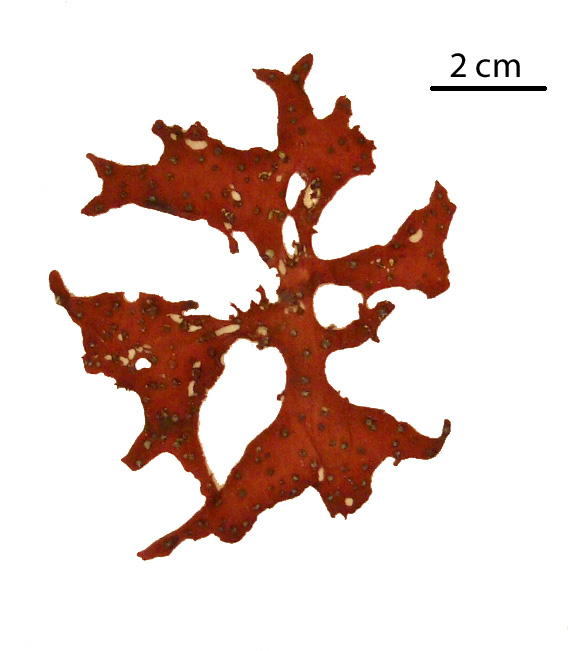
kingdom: Plantae
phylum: Rhodophyta
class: Florideophyceae
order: Gigartinales
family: Kallymeniaceae
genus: Callophyllis
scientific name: Callophyllis
